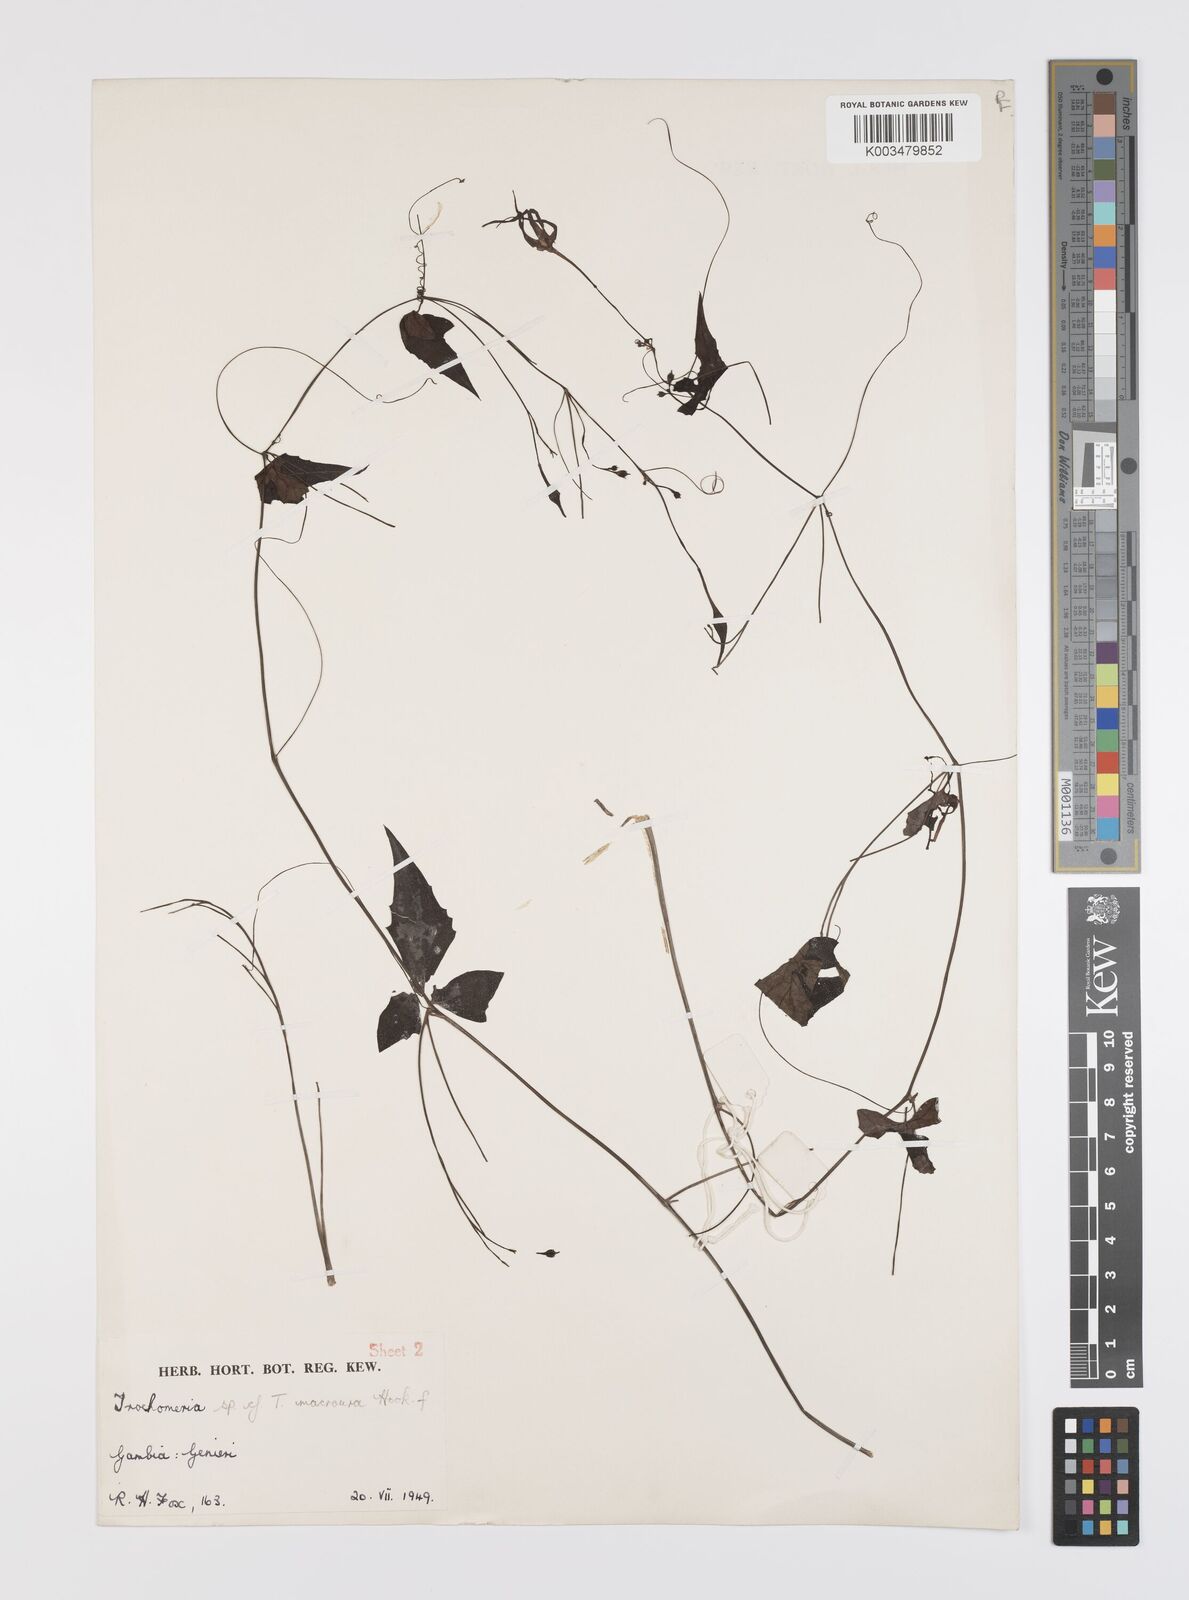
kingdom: Plantae
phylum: Tracheophyta
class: Magnoliopsida
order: Cucurbitales
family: Cucurbitaceae
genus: Trochomeria
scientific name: Trochomeria macrocarpa
